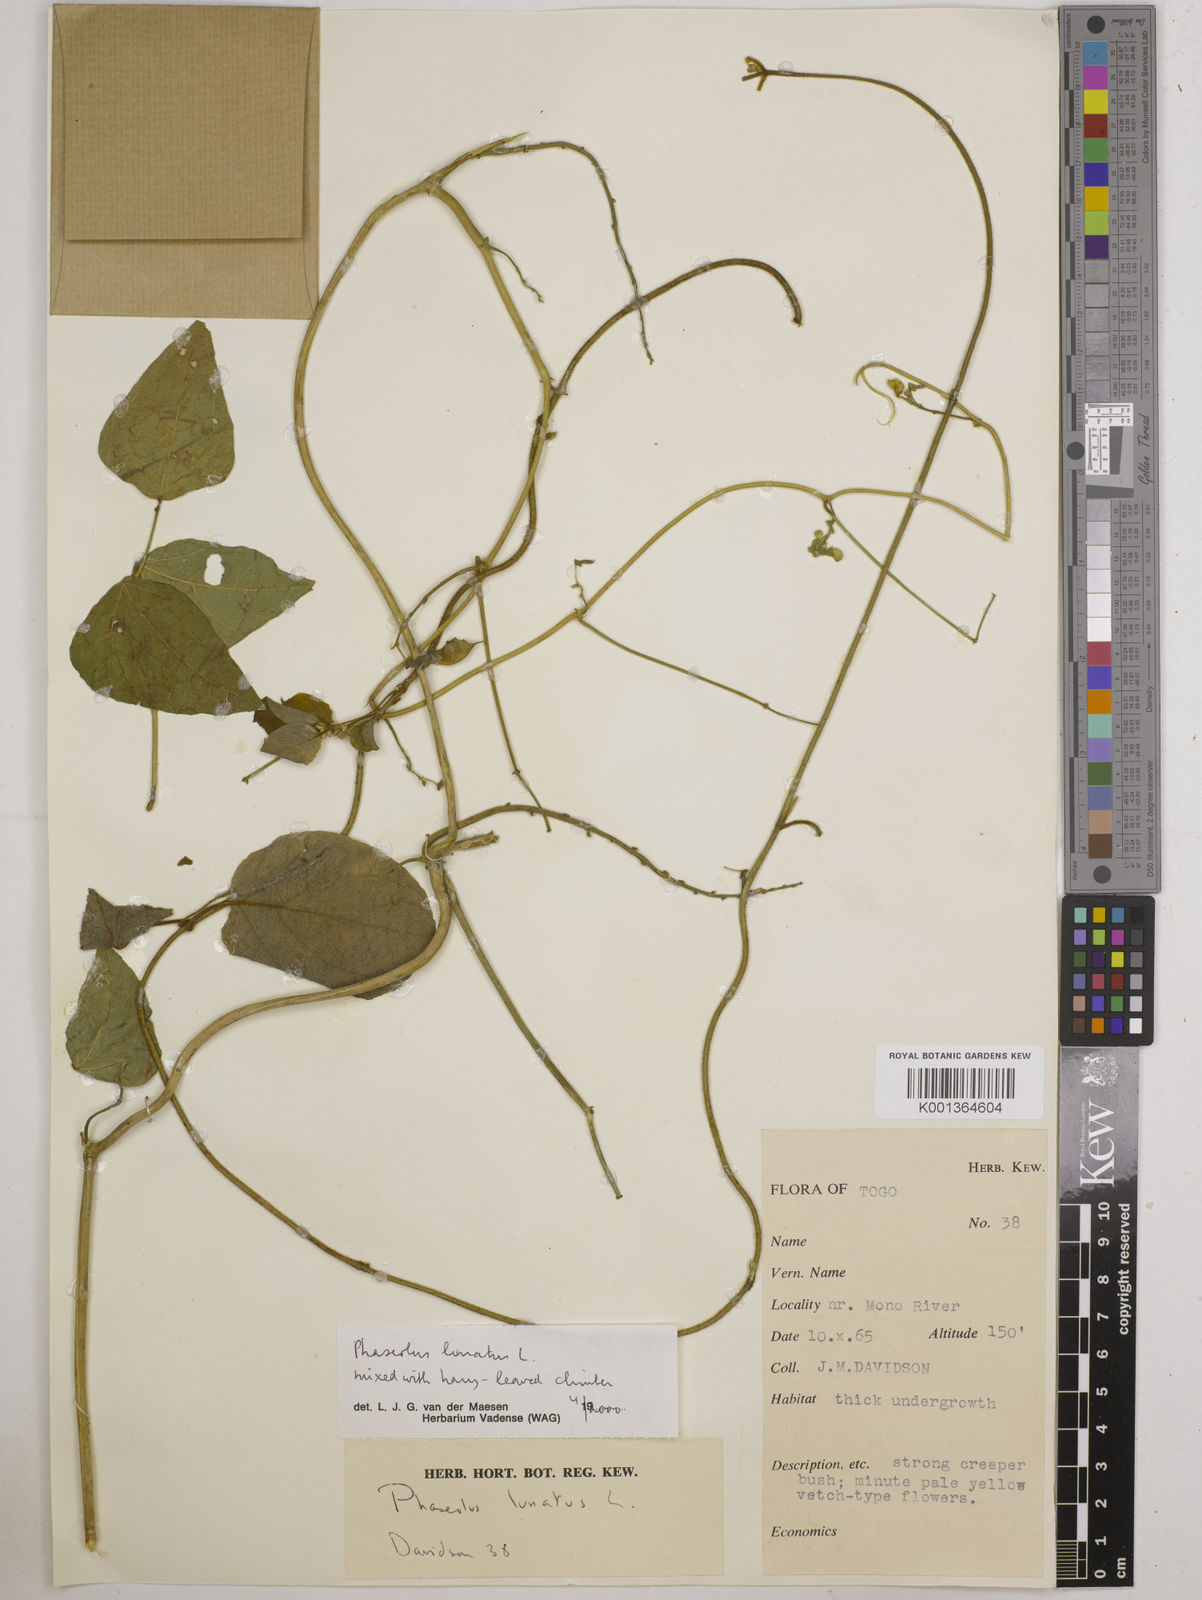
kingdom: Plantae
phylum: Tracheophyta
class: Magnoliopsida
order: Fabales
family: Fabaceae
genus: Phaseolus
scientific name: Phaseolus lunatus
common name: Sieva bean
